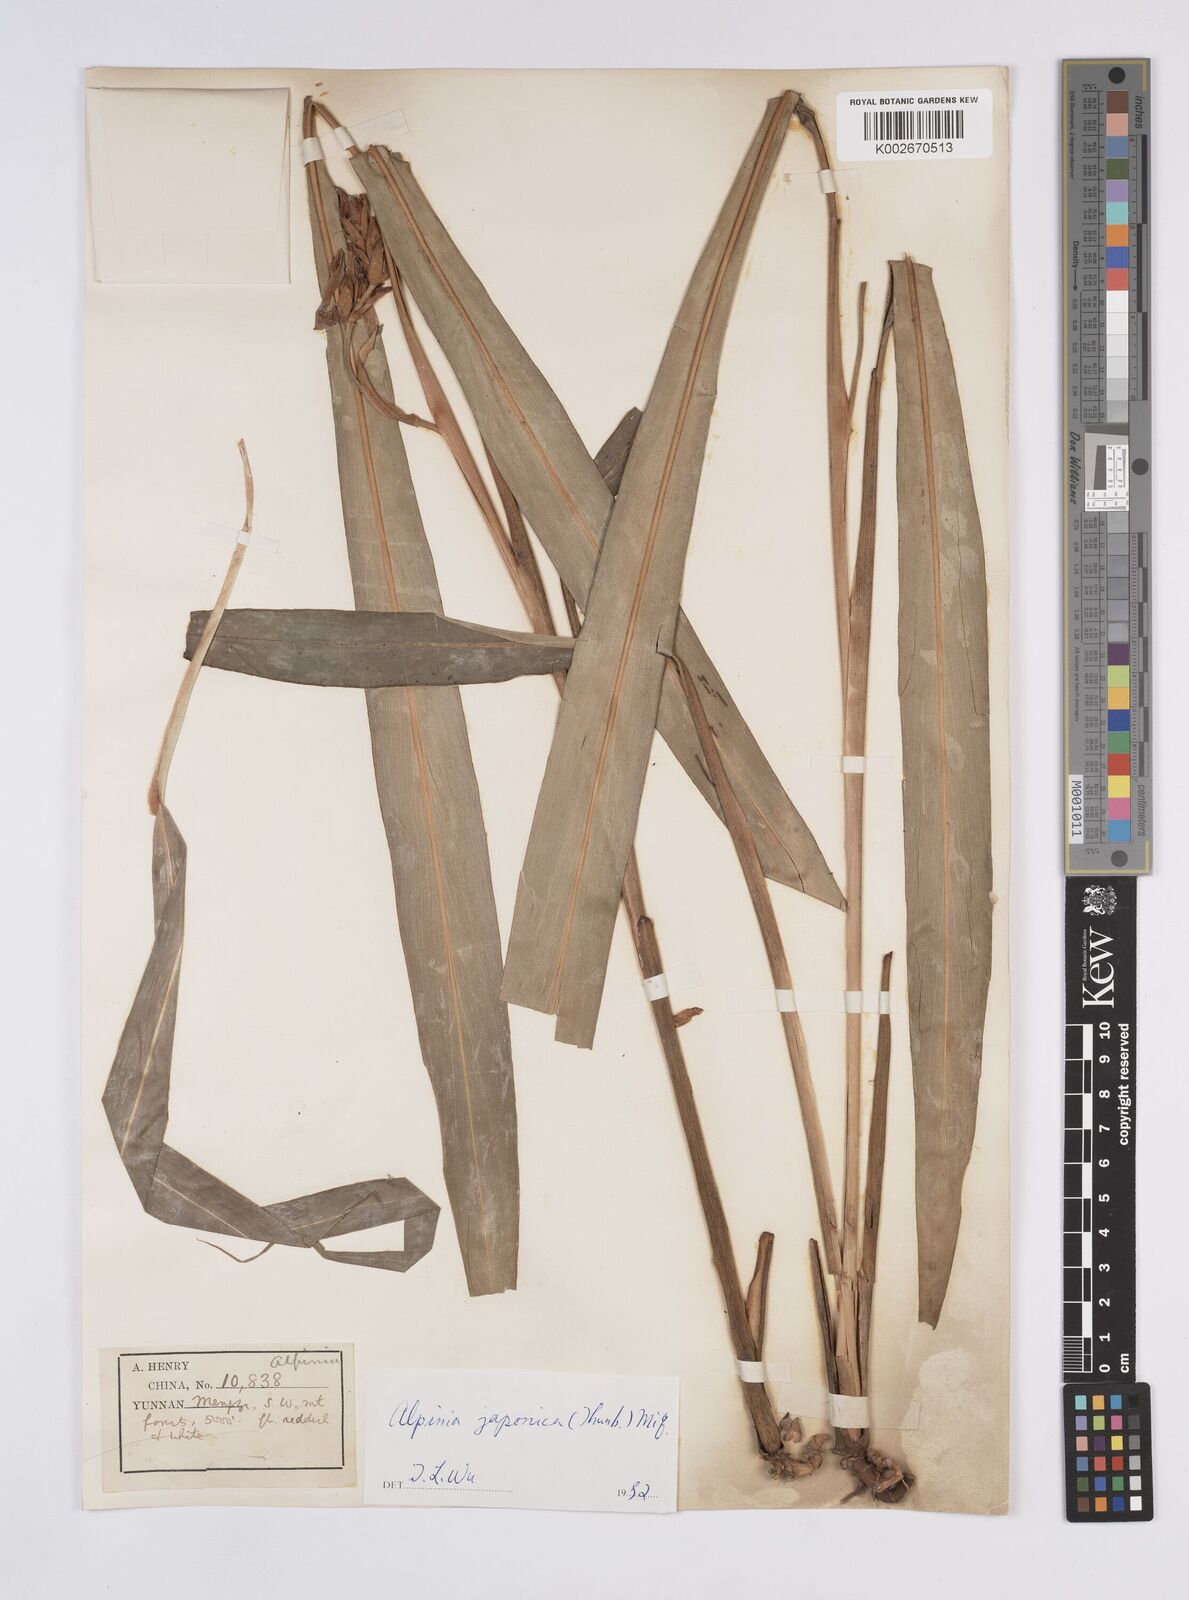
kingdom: Plantae
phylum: Tracheophyta
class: Liliopsida
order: Zingiberales
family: Zingiberaceae
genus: Alpinia
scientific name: Alpinia japonica
